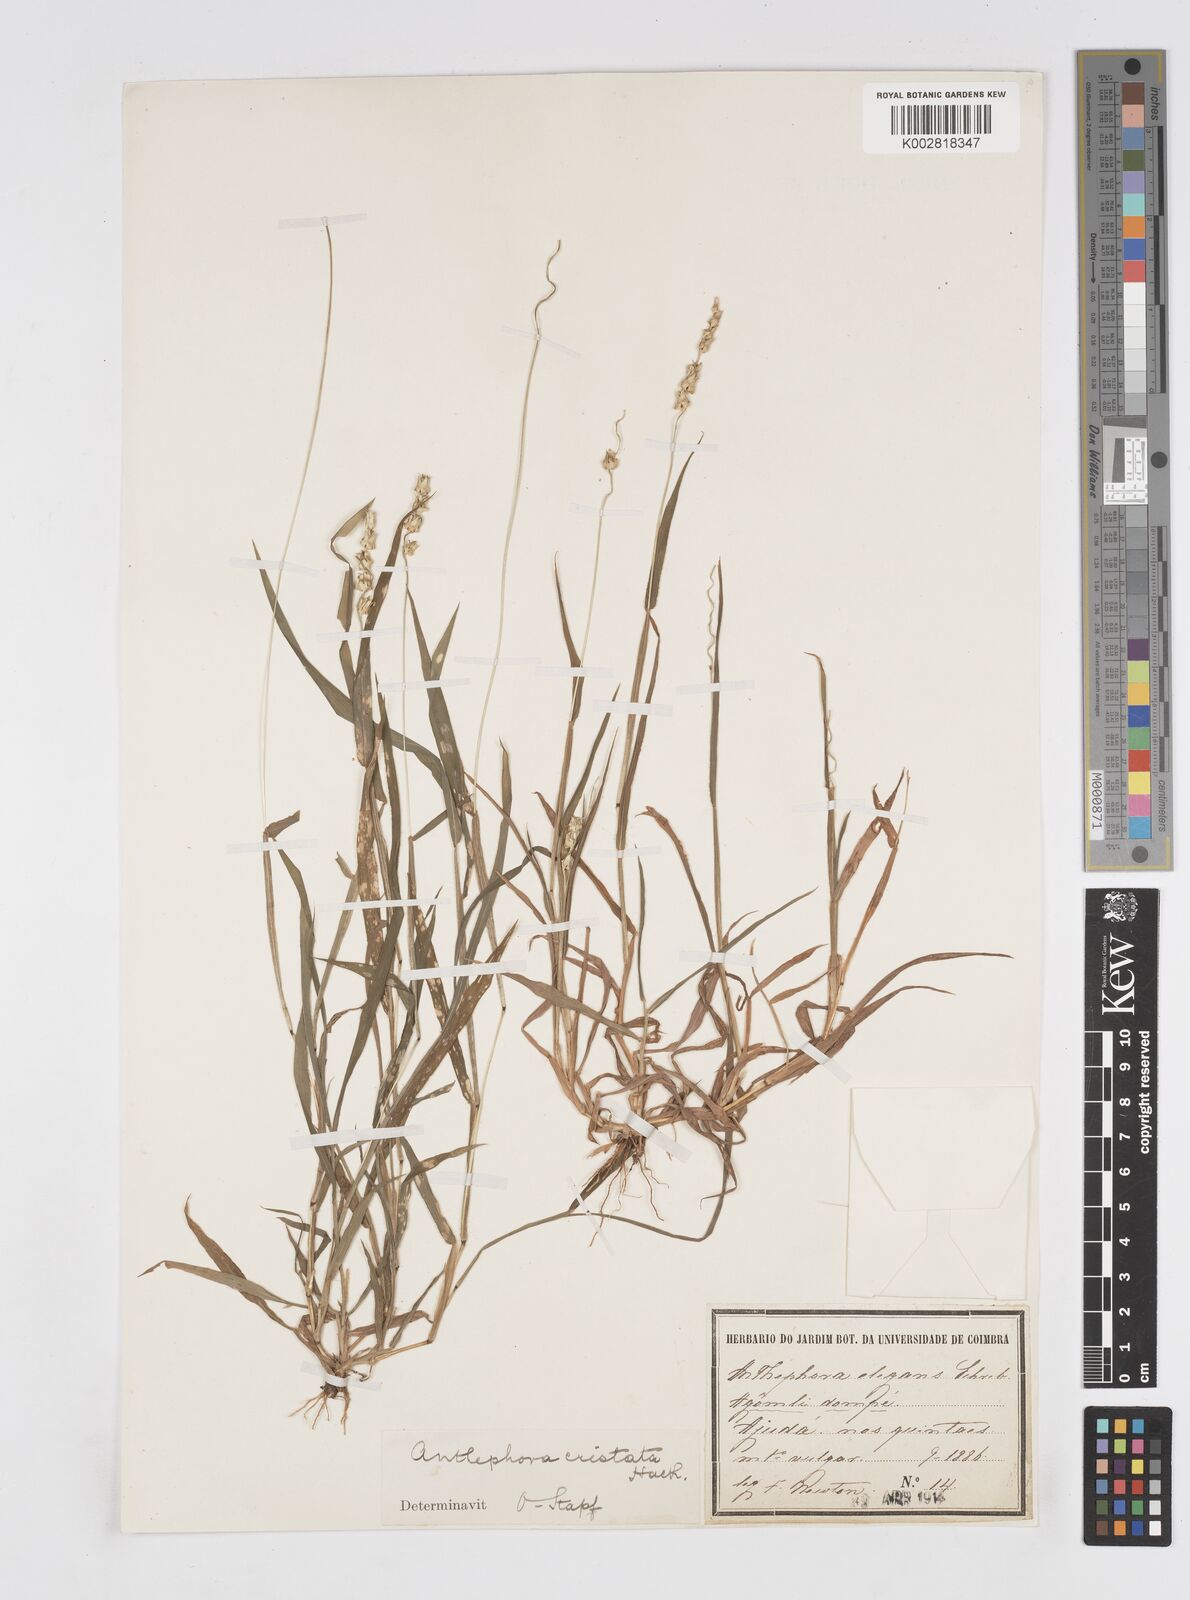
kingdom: Plantae
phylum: Tracheophyta
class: Liliopsida
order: Poales
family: Poaceae
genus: Anthephora
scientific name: Anthephora cristata
